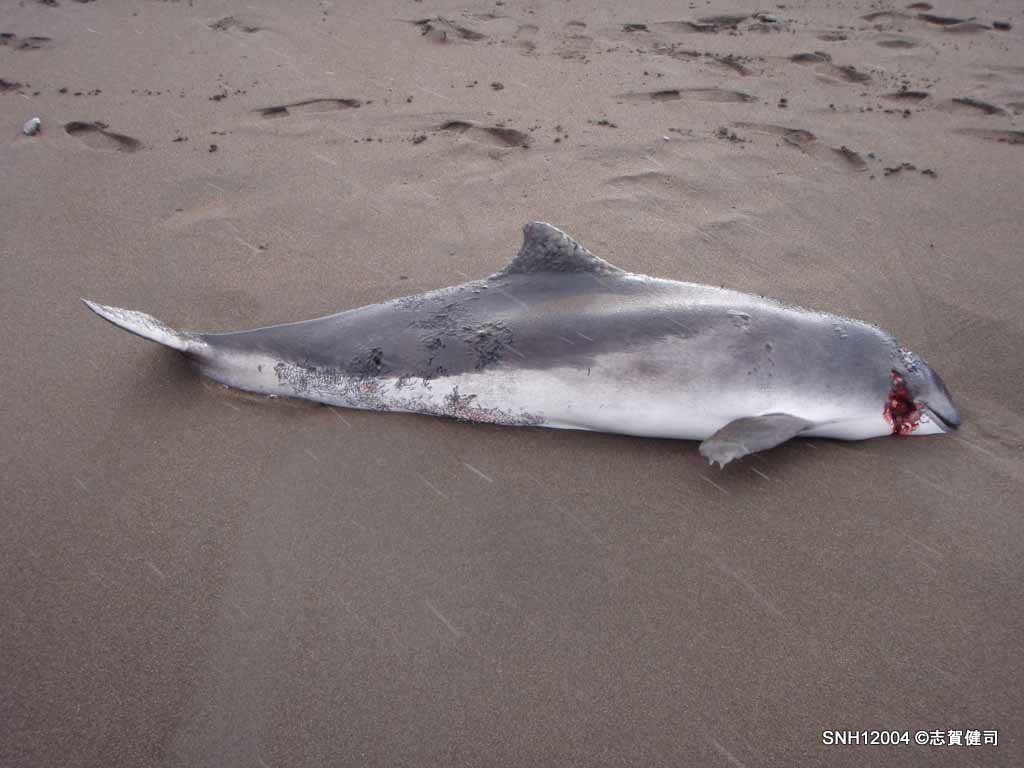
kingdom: Animalia
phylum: Chordata
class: Mammalia
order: Cetacea
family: Phocoenidae
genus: Phocoena
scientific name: Phocoena phocoena
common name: Harbour porpoise
